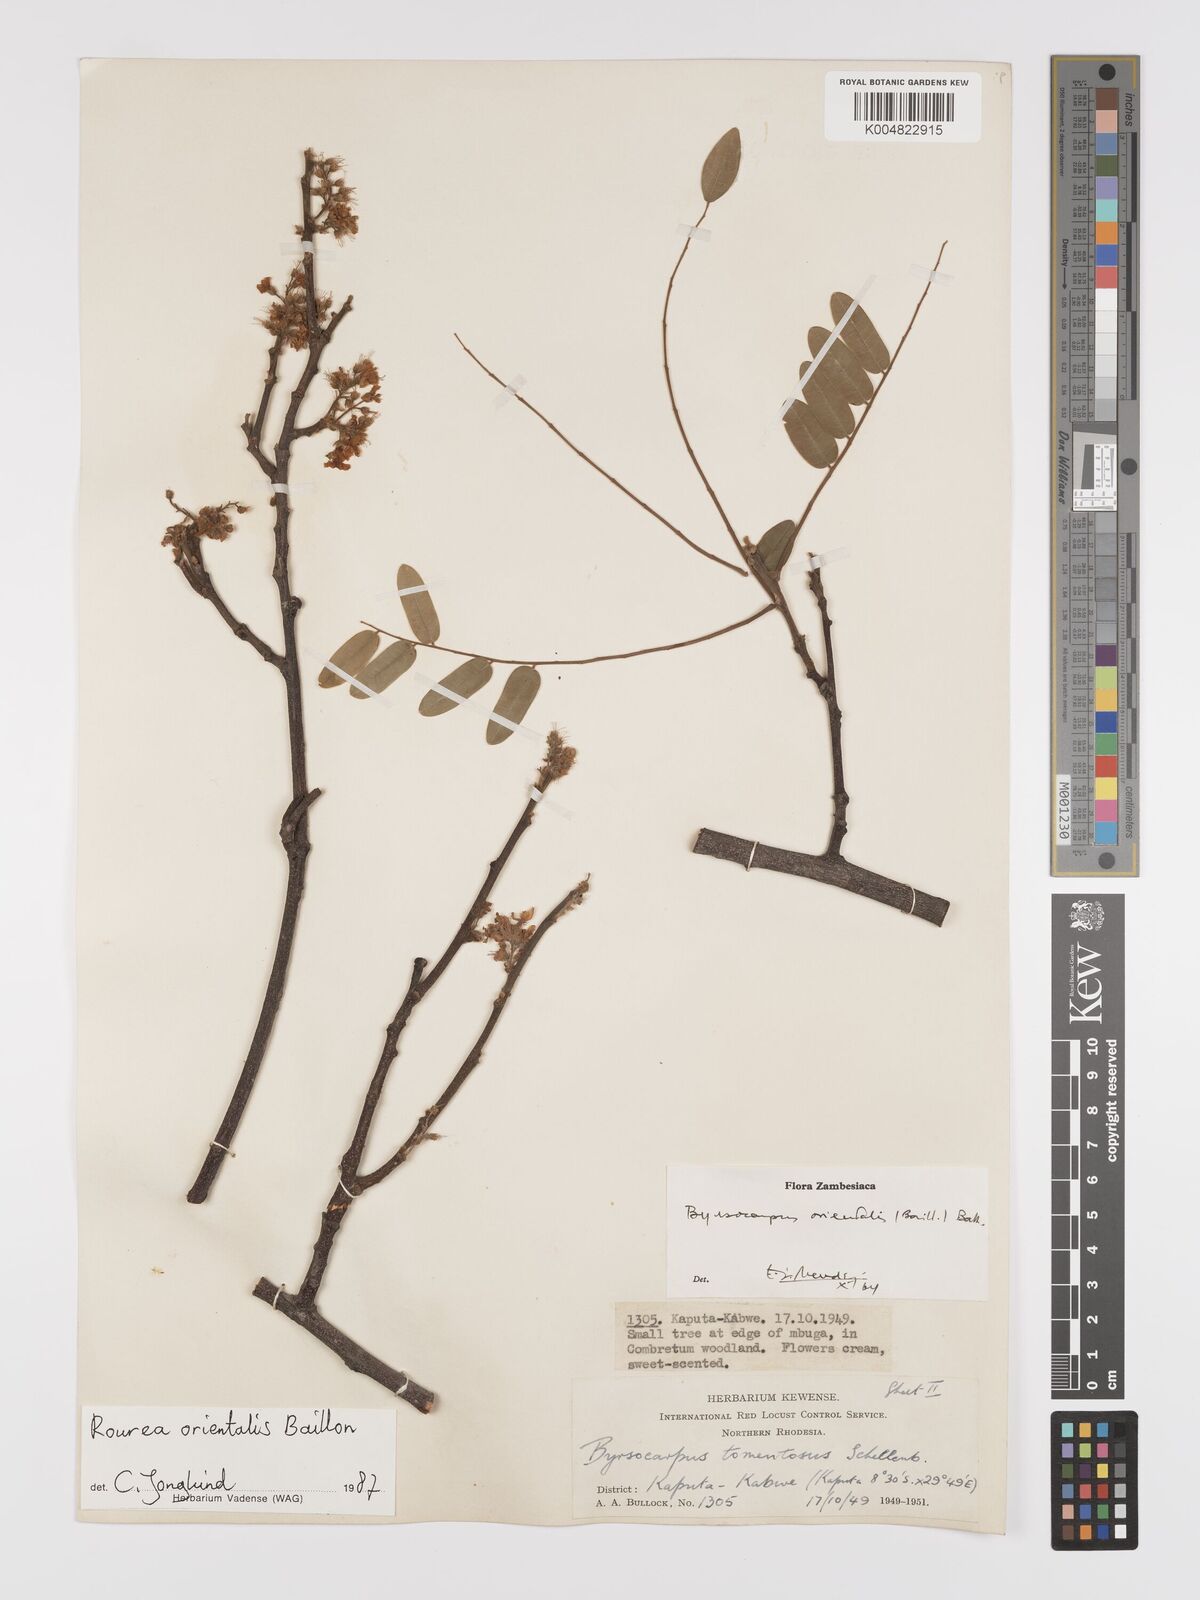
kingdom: Plantae
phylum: Tracheophyta
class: Magnoliopsida
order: Oxalidales
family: Connaraceae
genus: Rourea
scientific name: Rourea orientalis
